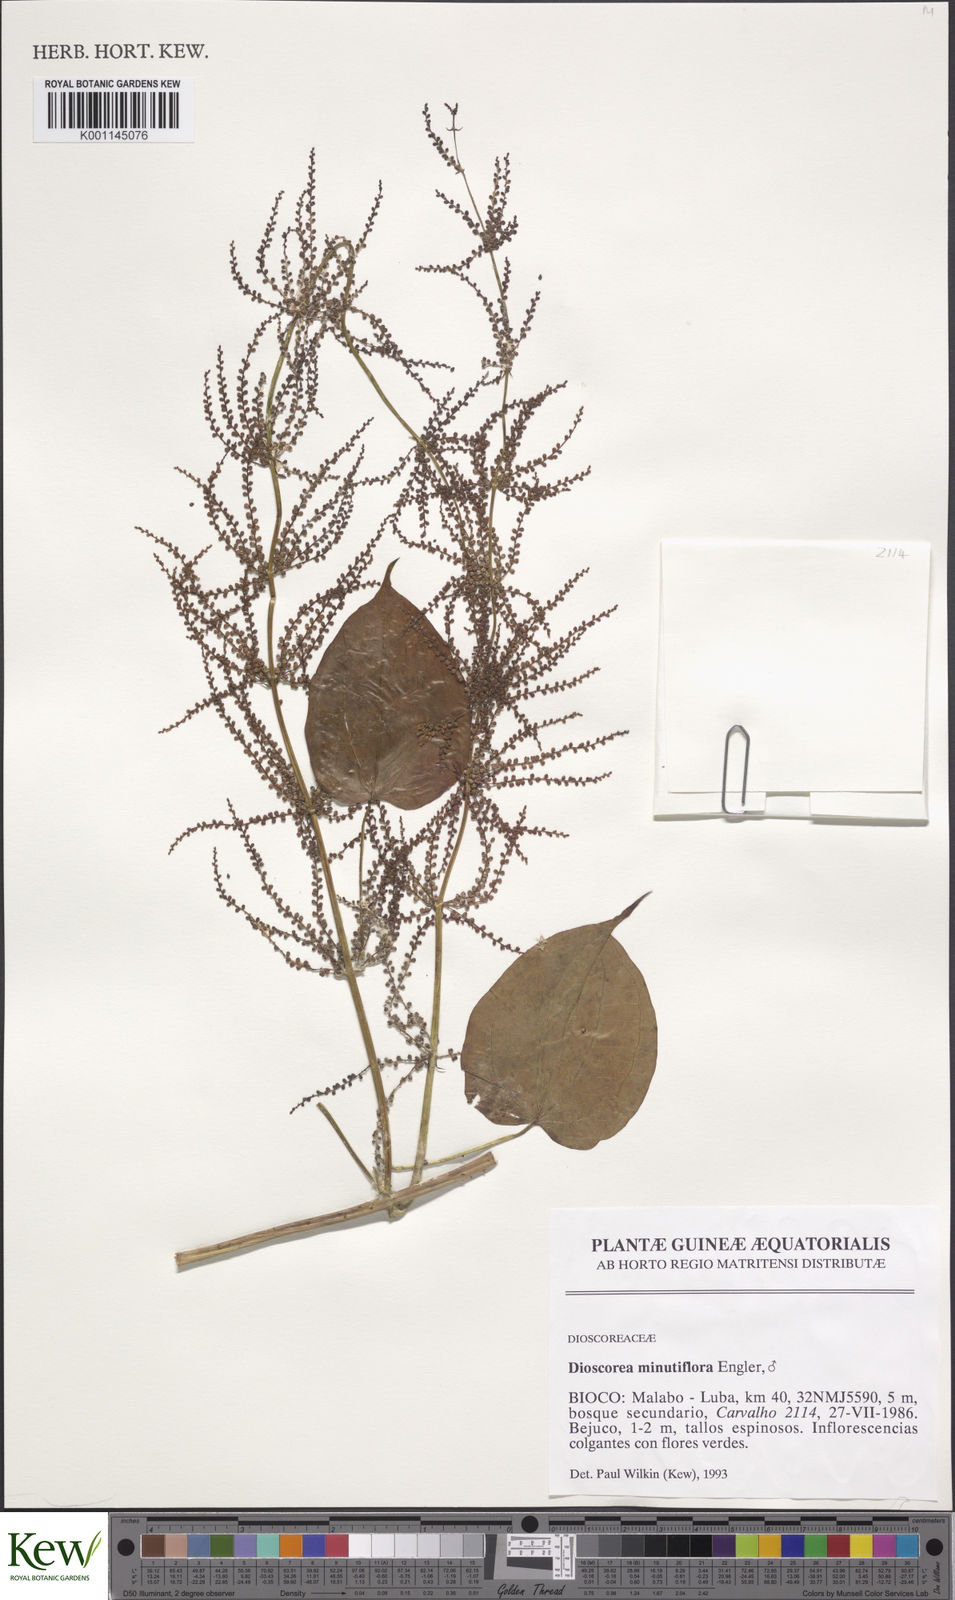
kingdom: Plantae
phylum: Tracheophyta
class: Liliopsida
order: Dioscoreales
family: Dioscoreaceae
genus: Dioscorea
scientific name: Dioscorea minutiflora
